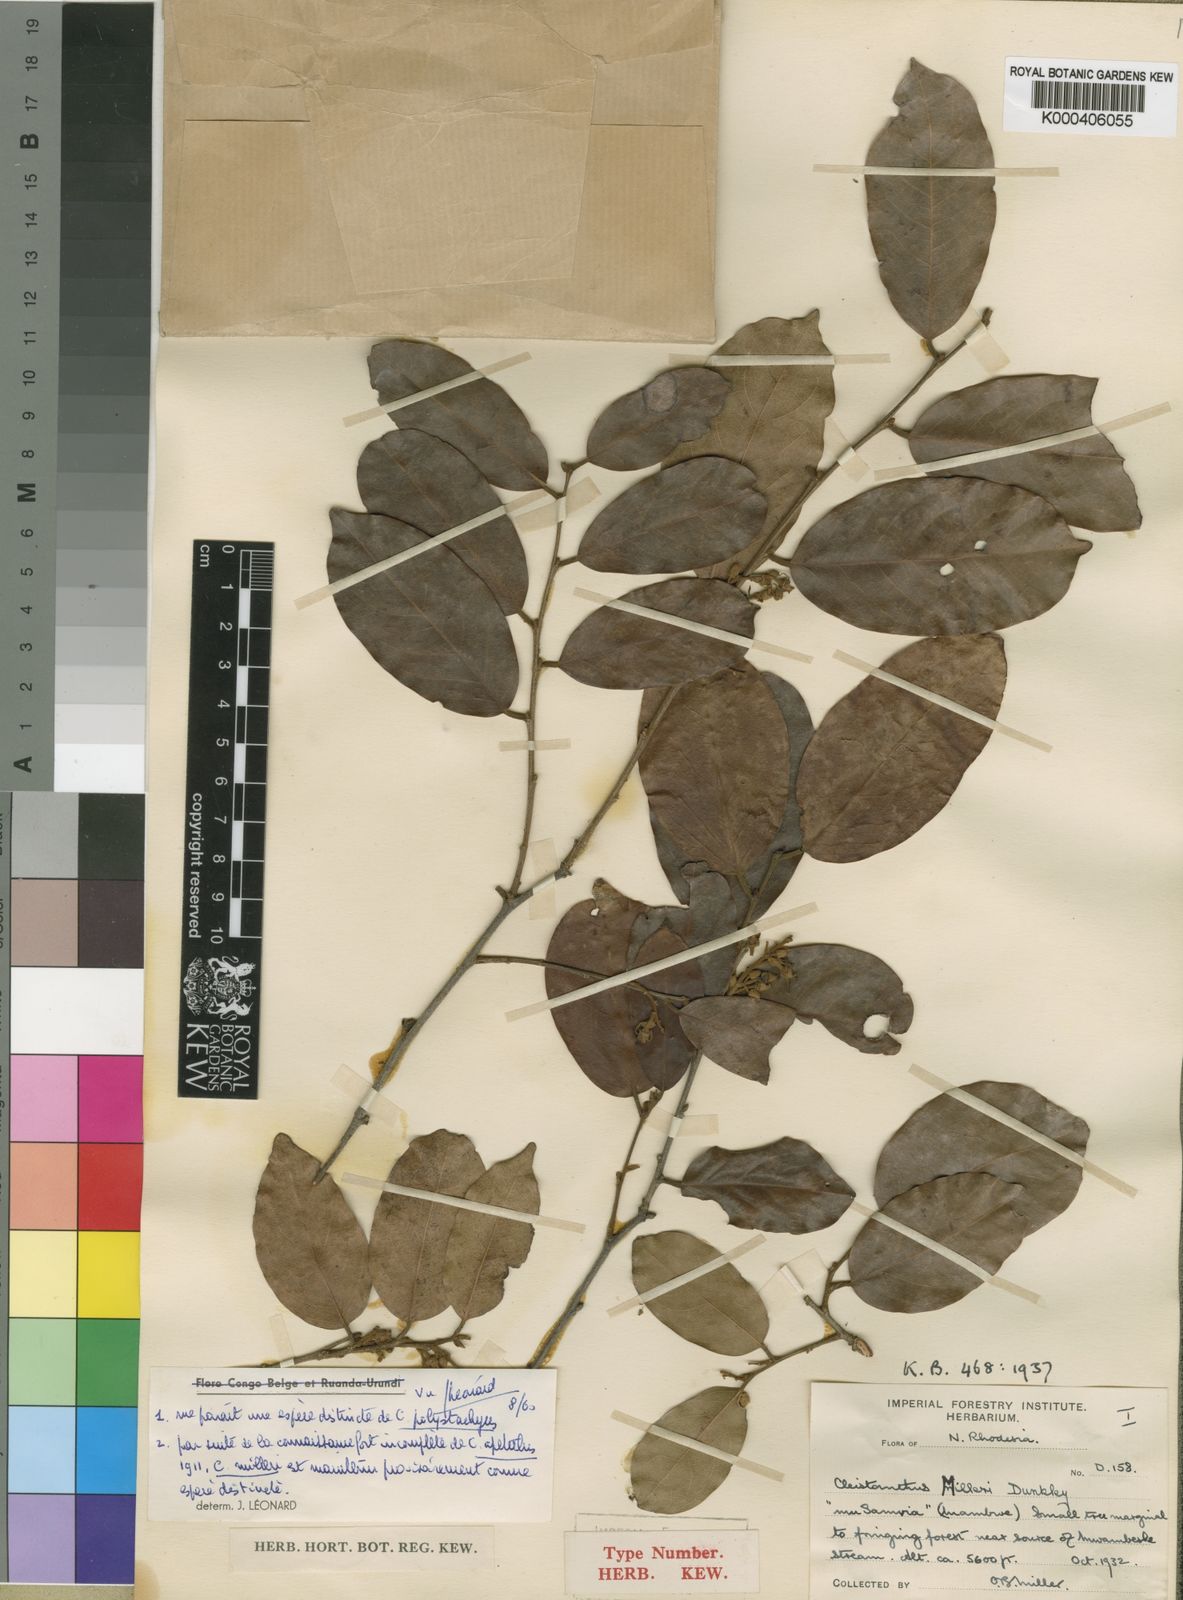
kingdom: Plantae
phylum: Tracheophyta
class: Magnoliopsida
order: Malpighiales
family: Phyllanthaceae
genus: Cleistanthus
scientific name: Cleistanthus polystachyus
